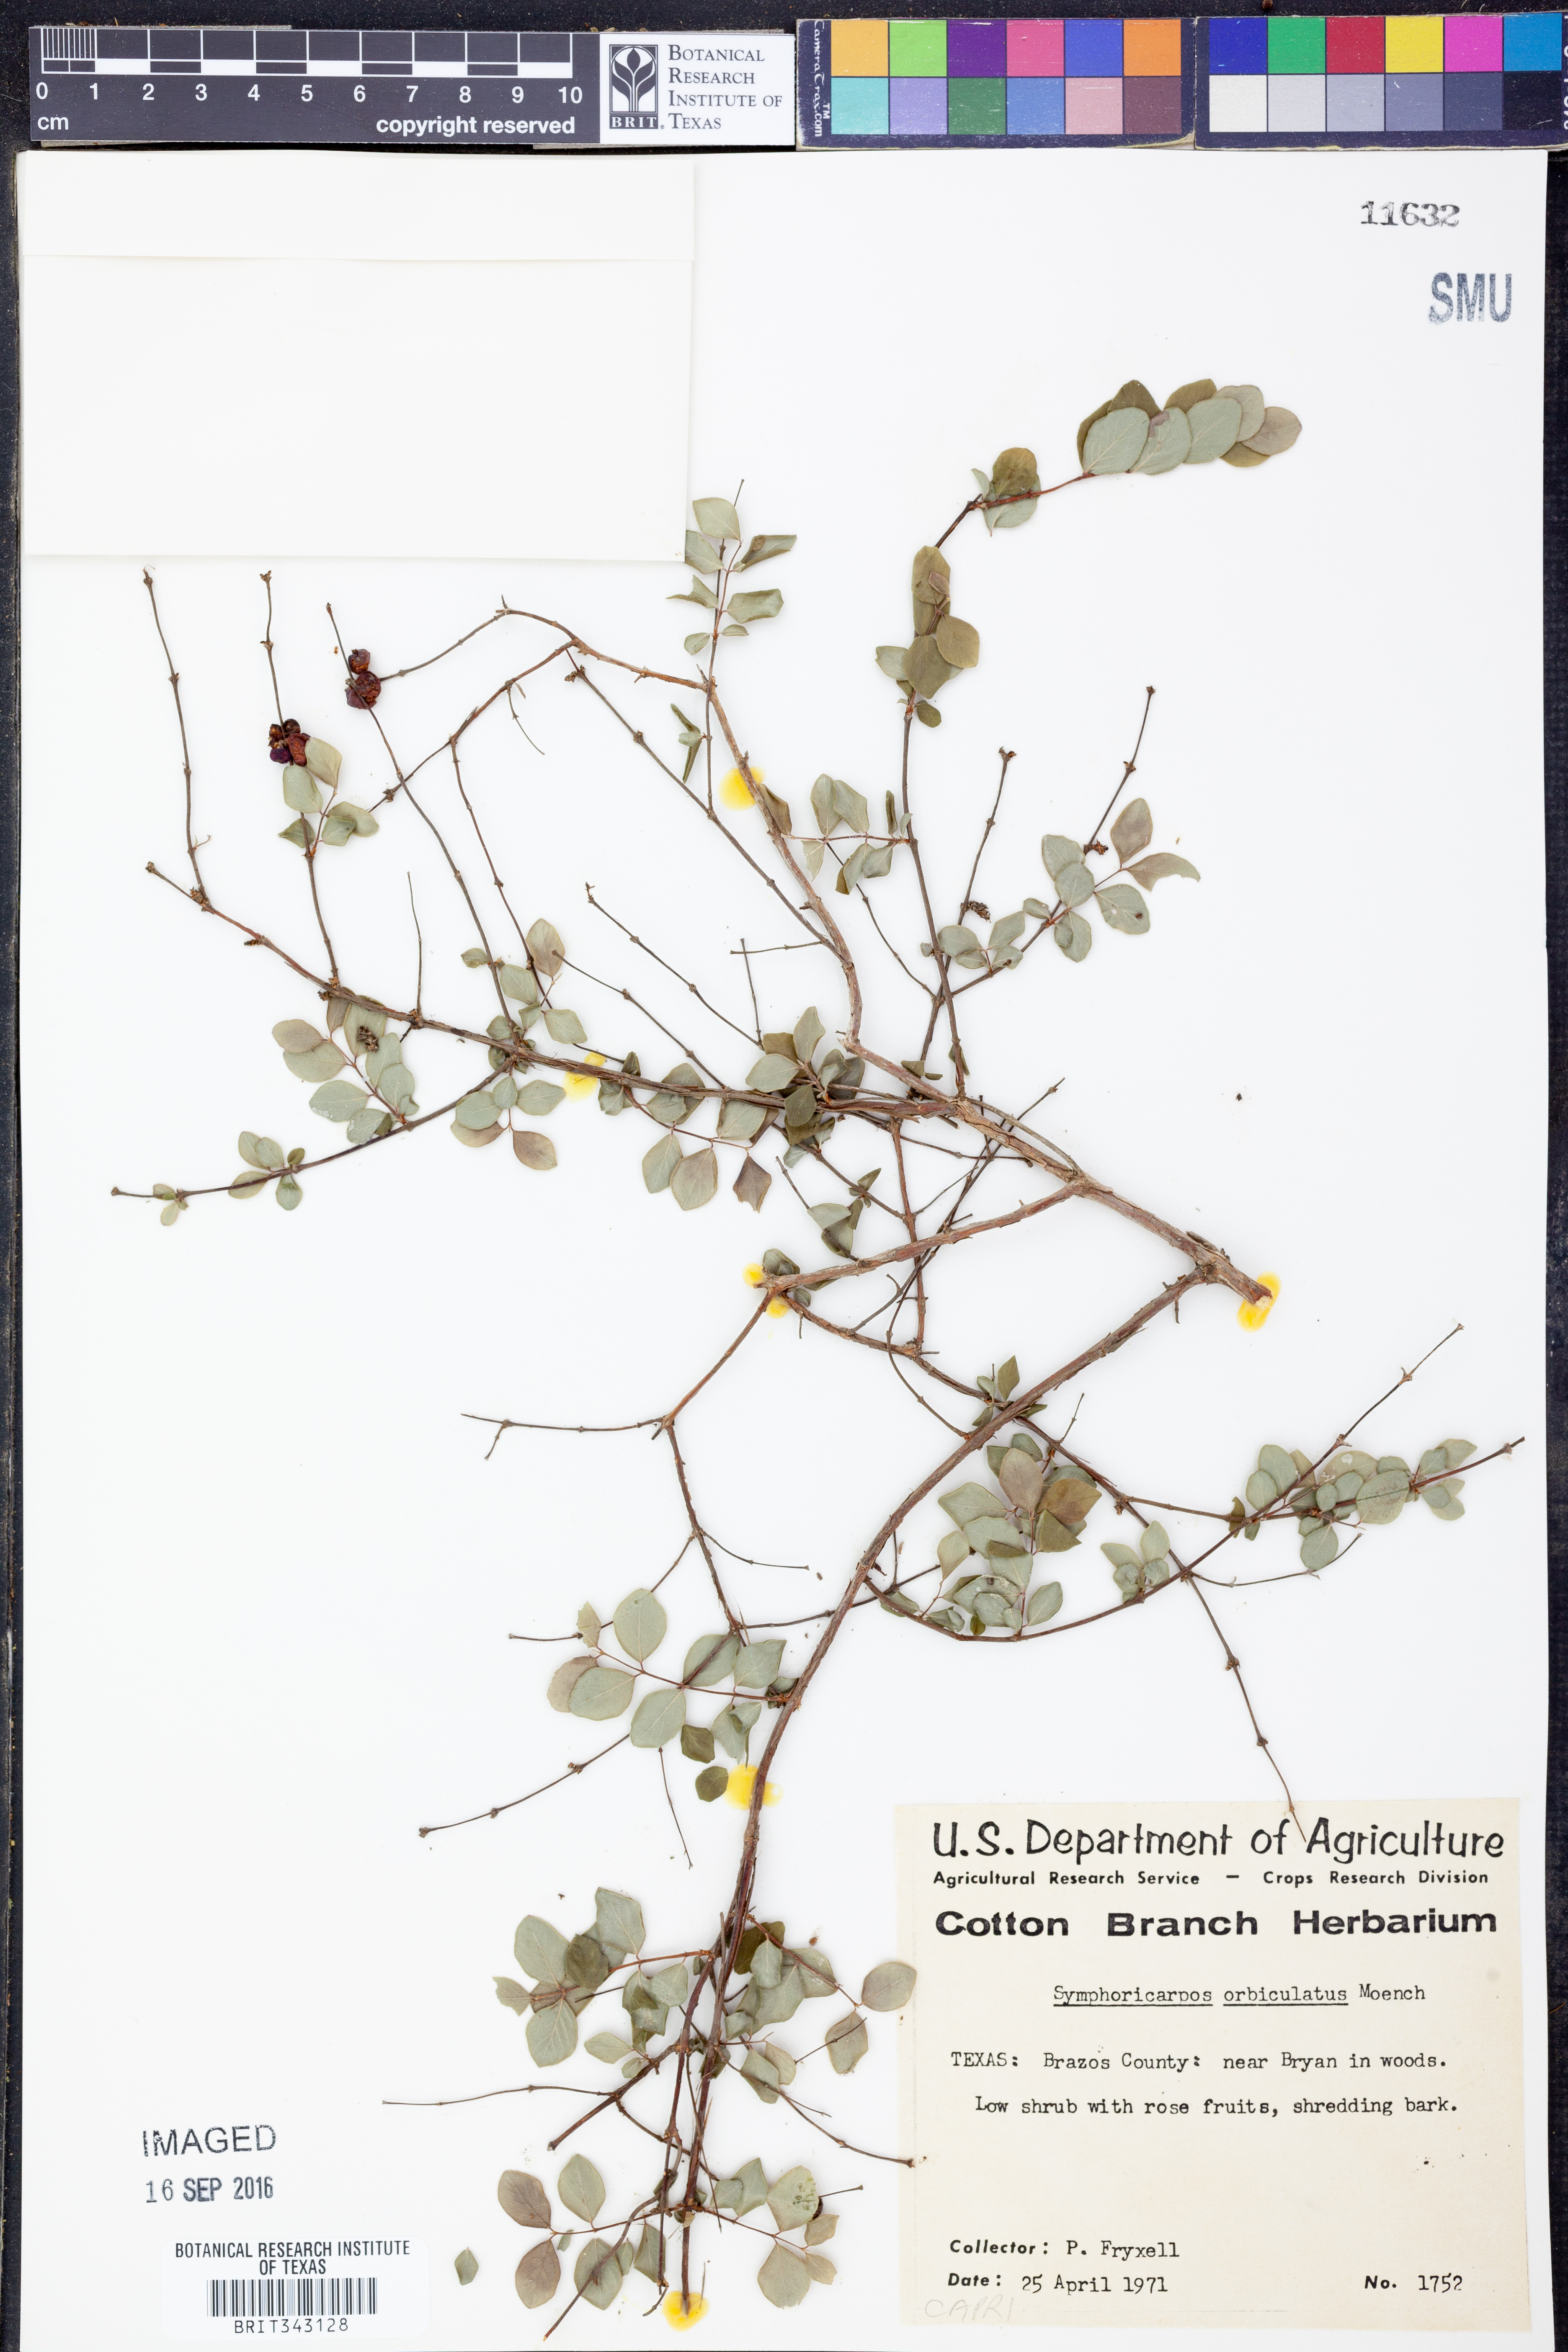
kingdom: Plantae
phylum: Tracheophyta
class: Magnoliopsida
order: Dipsacales
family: Caprifoliaceae
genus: Symphoricarpos
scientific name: Symphoricarpos orbiculatus
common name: Coralberry
